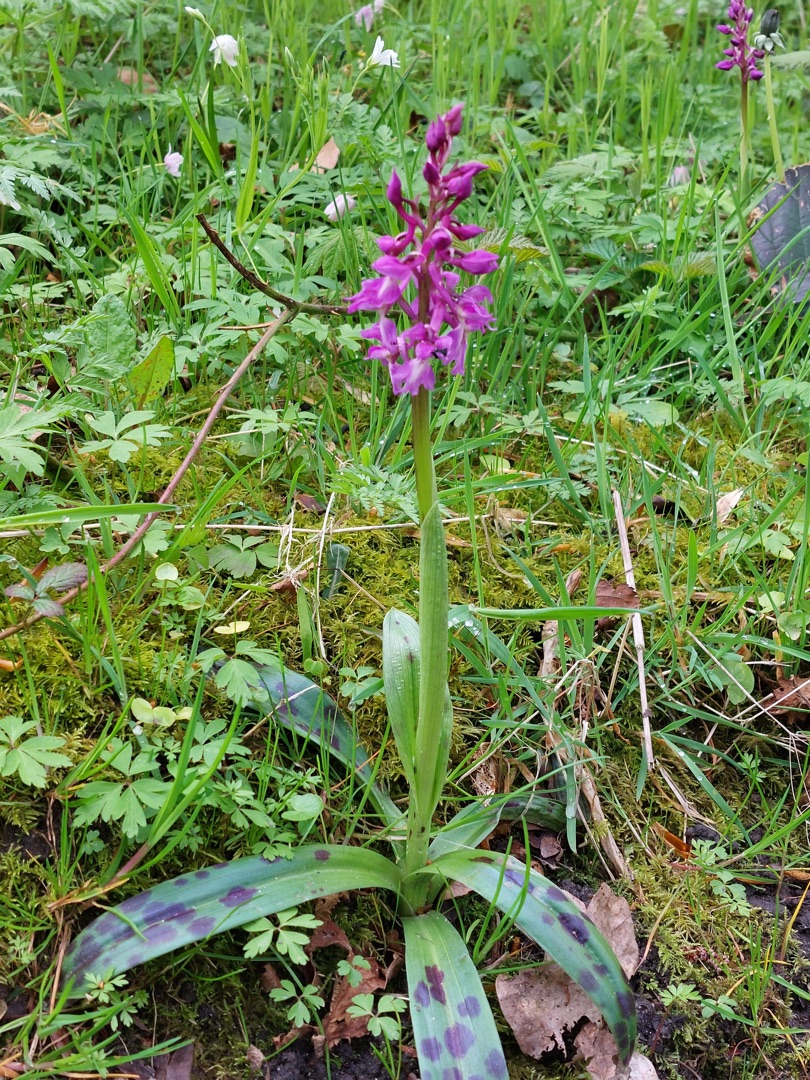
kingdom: Plantae
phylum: Tracheophyta
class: Liliopsida
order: Asparagales
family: Orchidaceae
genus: Orchis
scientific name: Orchis mascula
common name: Tyndakset gøgeurt
